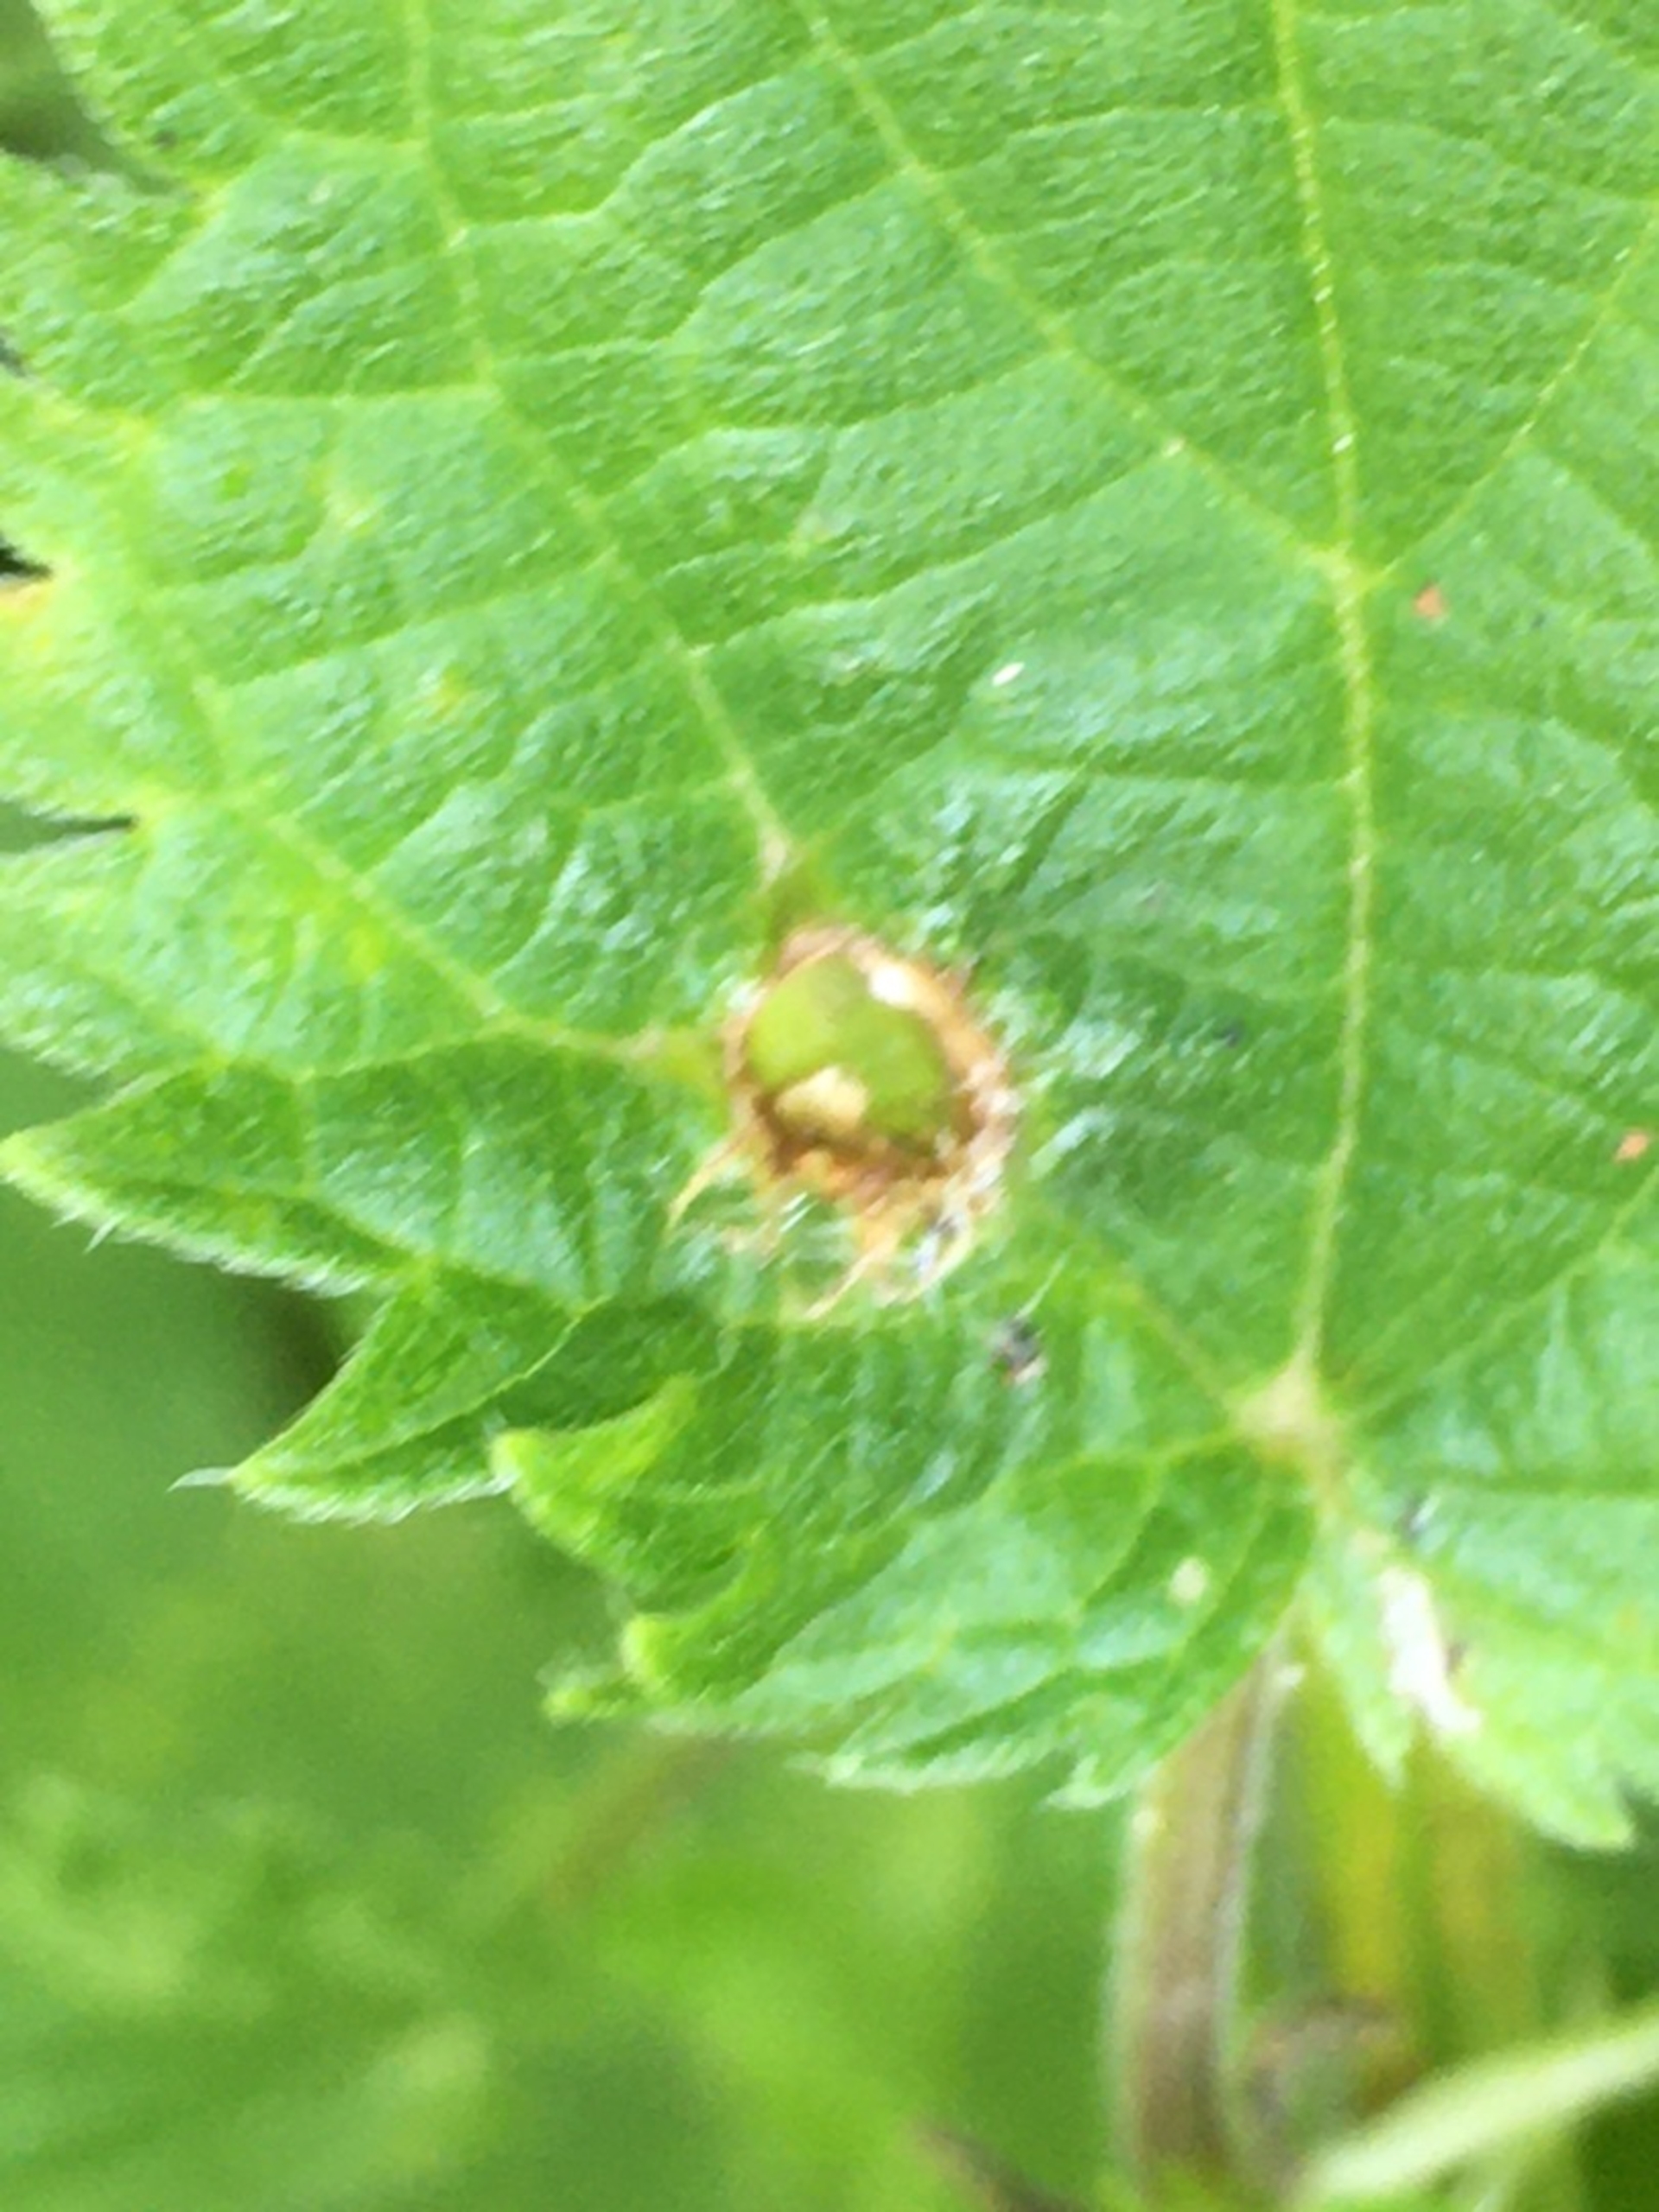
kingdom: Animalia
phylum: Arthropoda
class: Insecta
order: Diptera
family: Cecidomyiidae
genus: Dasineura
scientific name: Dasineura urticae
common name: Nældepunggalmyg
